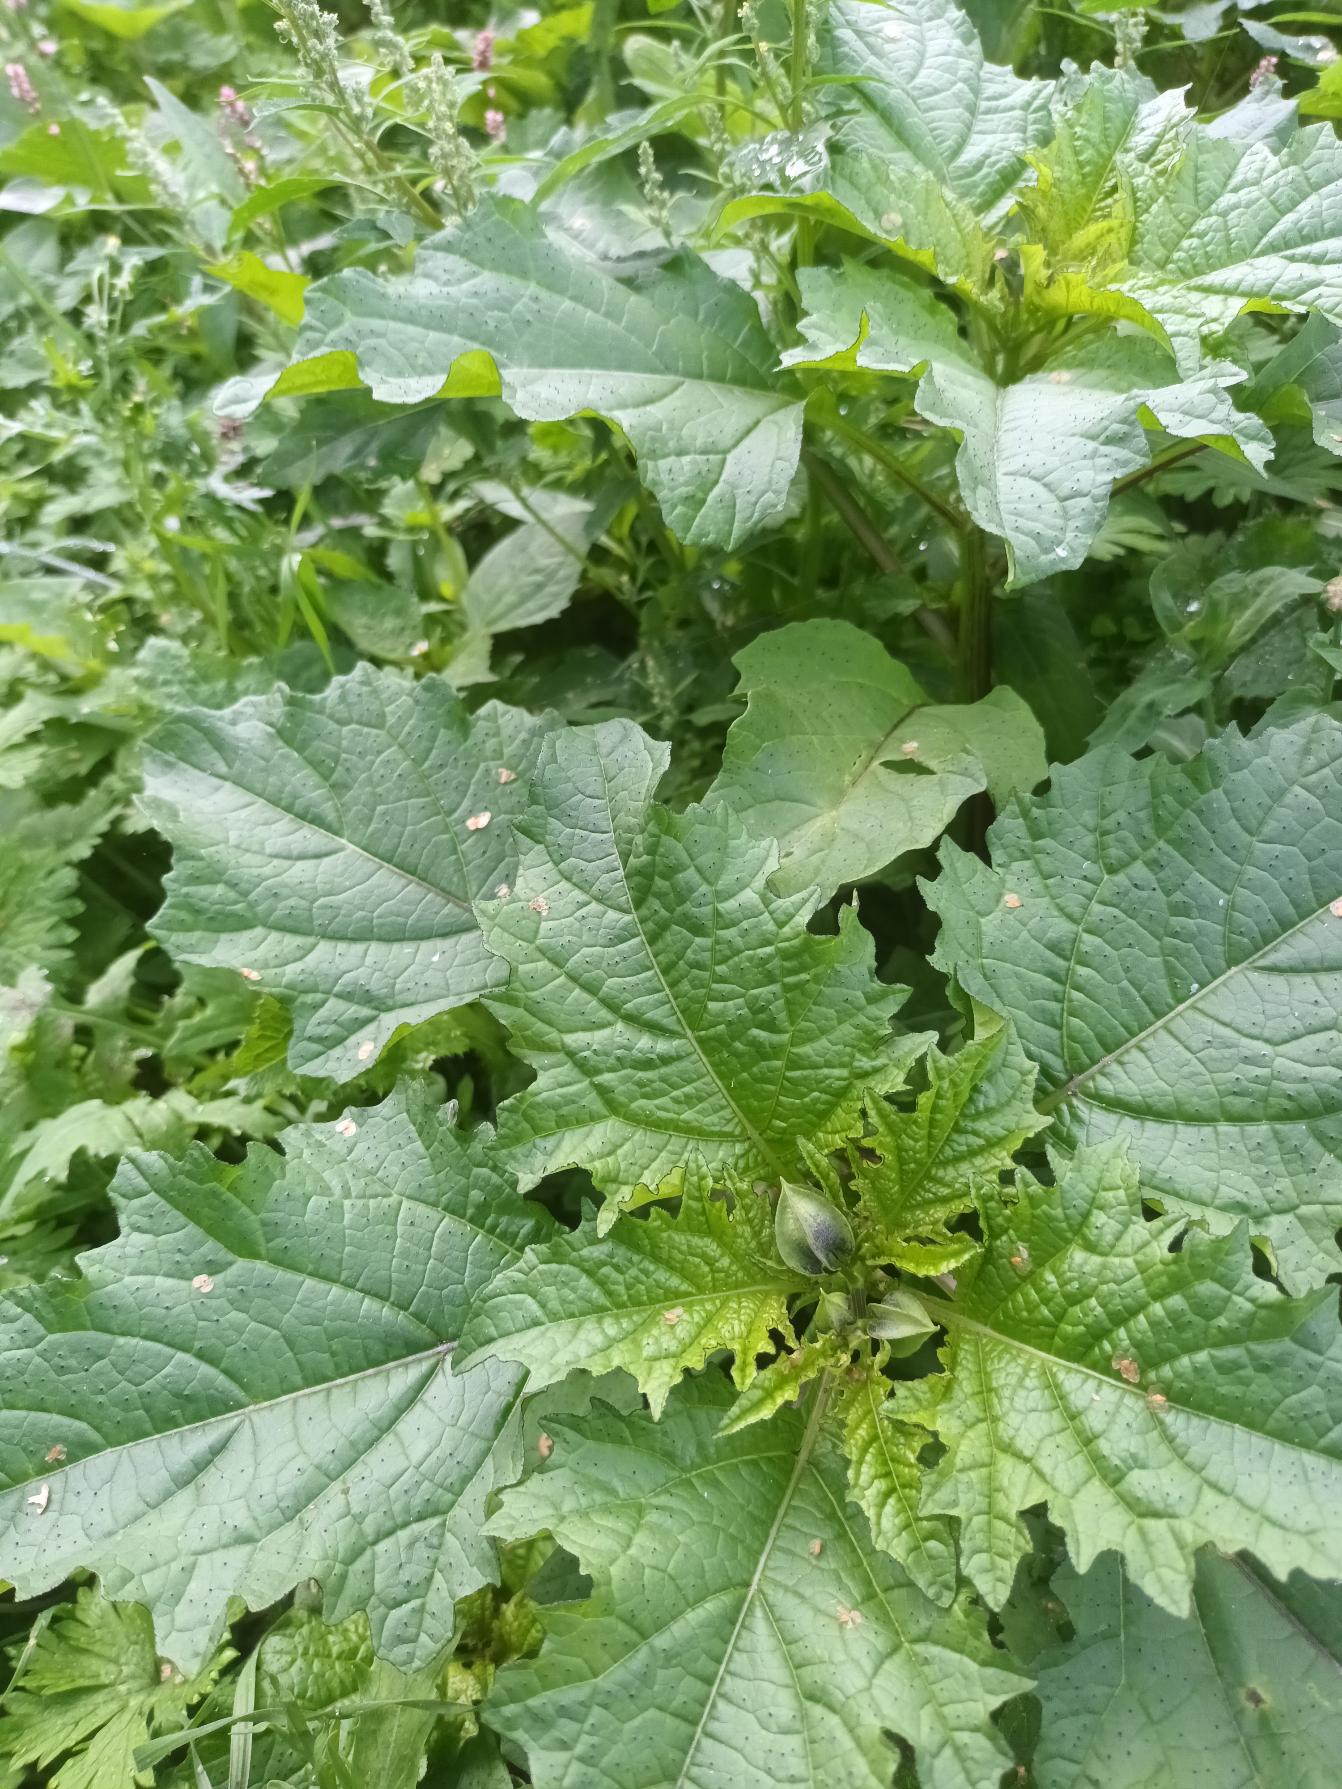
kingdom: Plantae
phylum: Tracheophyta
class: Magnoliopsida
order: Solanales
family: Solanaceae
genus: Nicandra
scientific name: Nicandra physalodes
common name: Kantbæger
